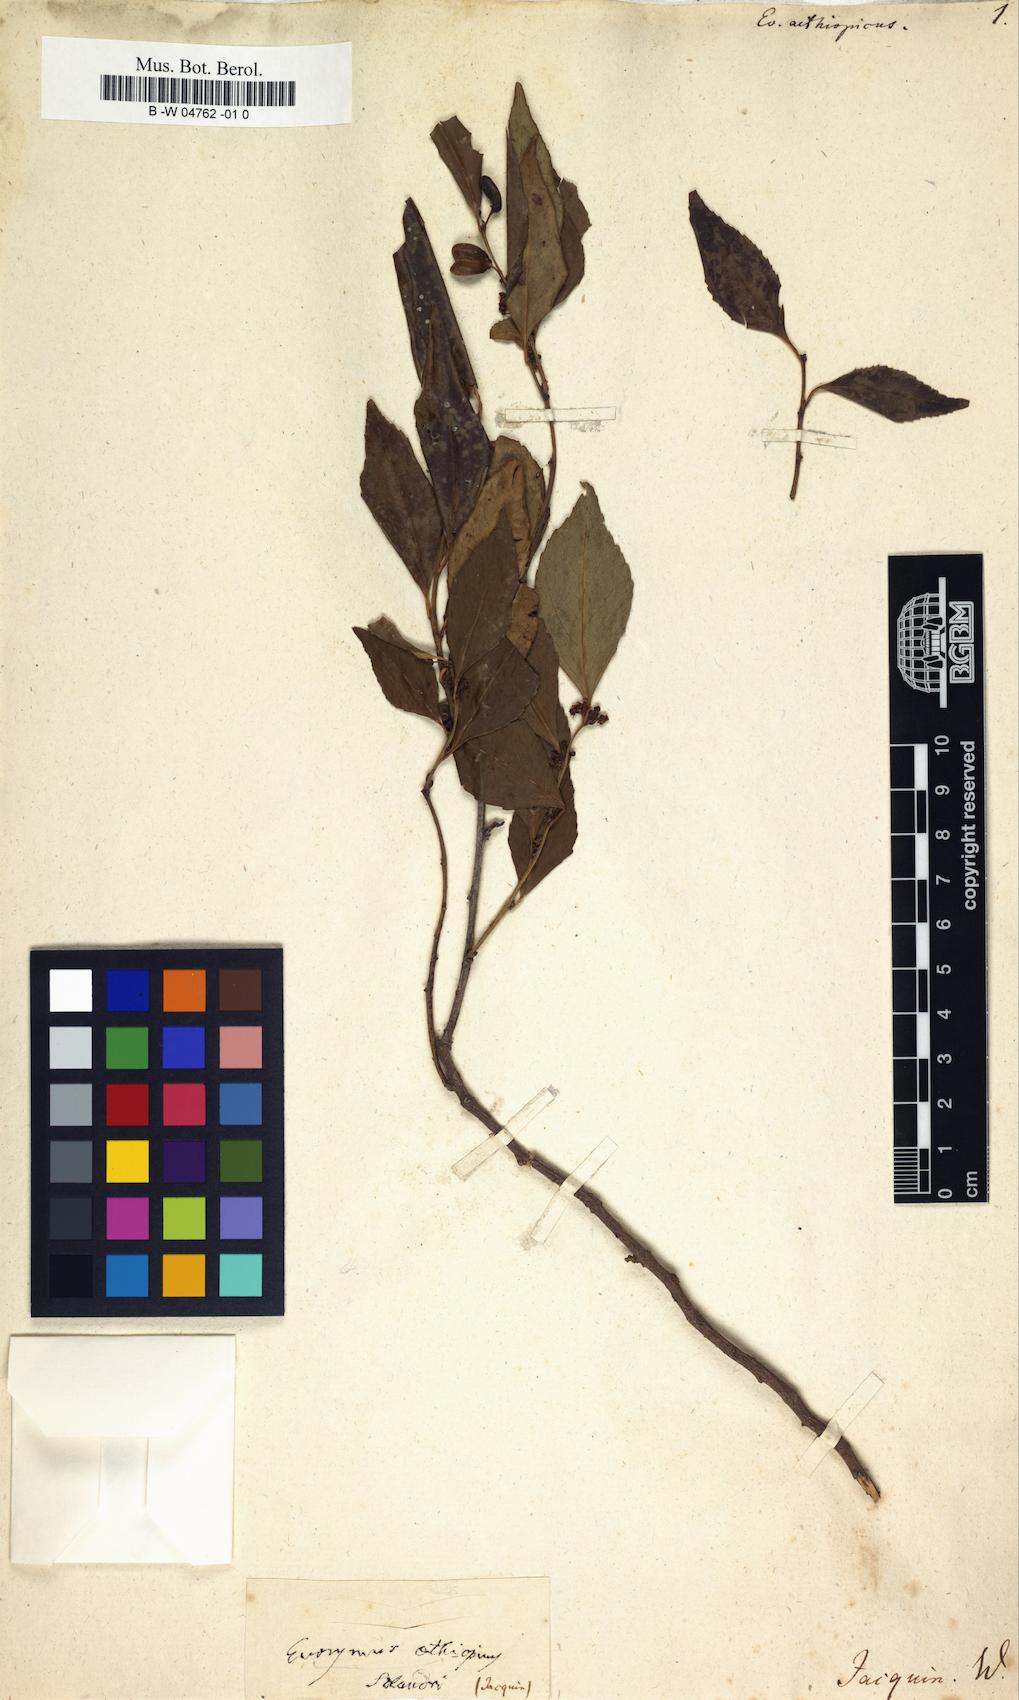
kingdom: Plantae
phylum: Tracheophyta
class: Magnoliopsida
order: Celastrales
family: Celastraceae
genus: Euonymus
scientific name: Euonymus
